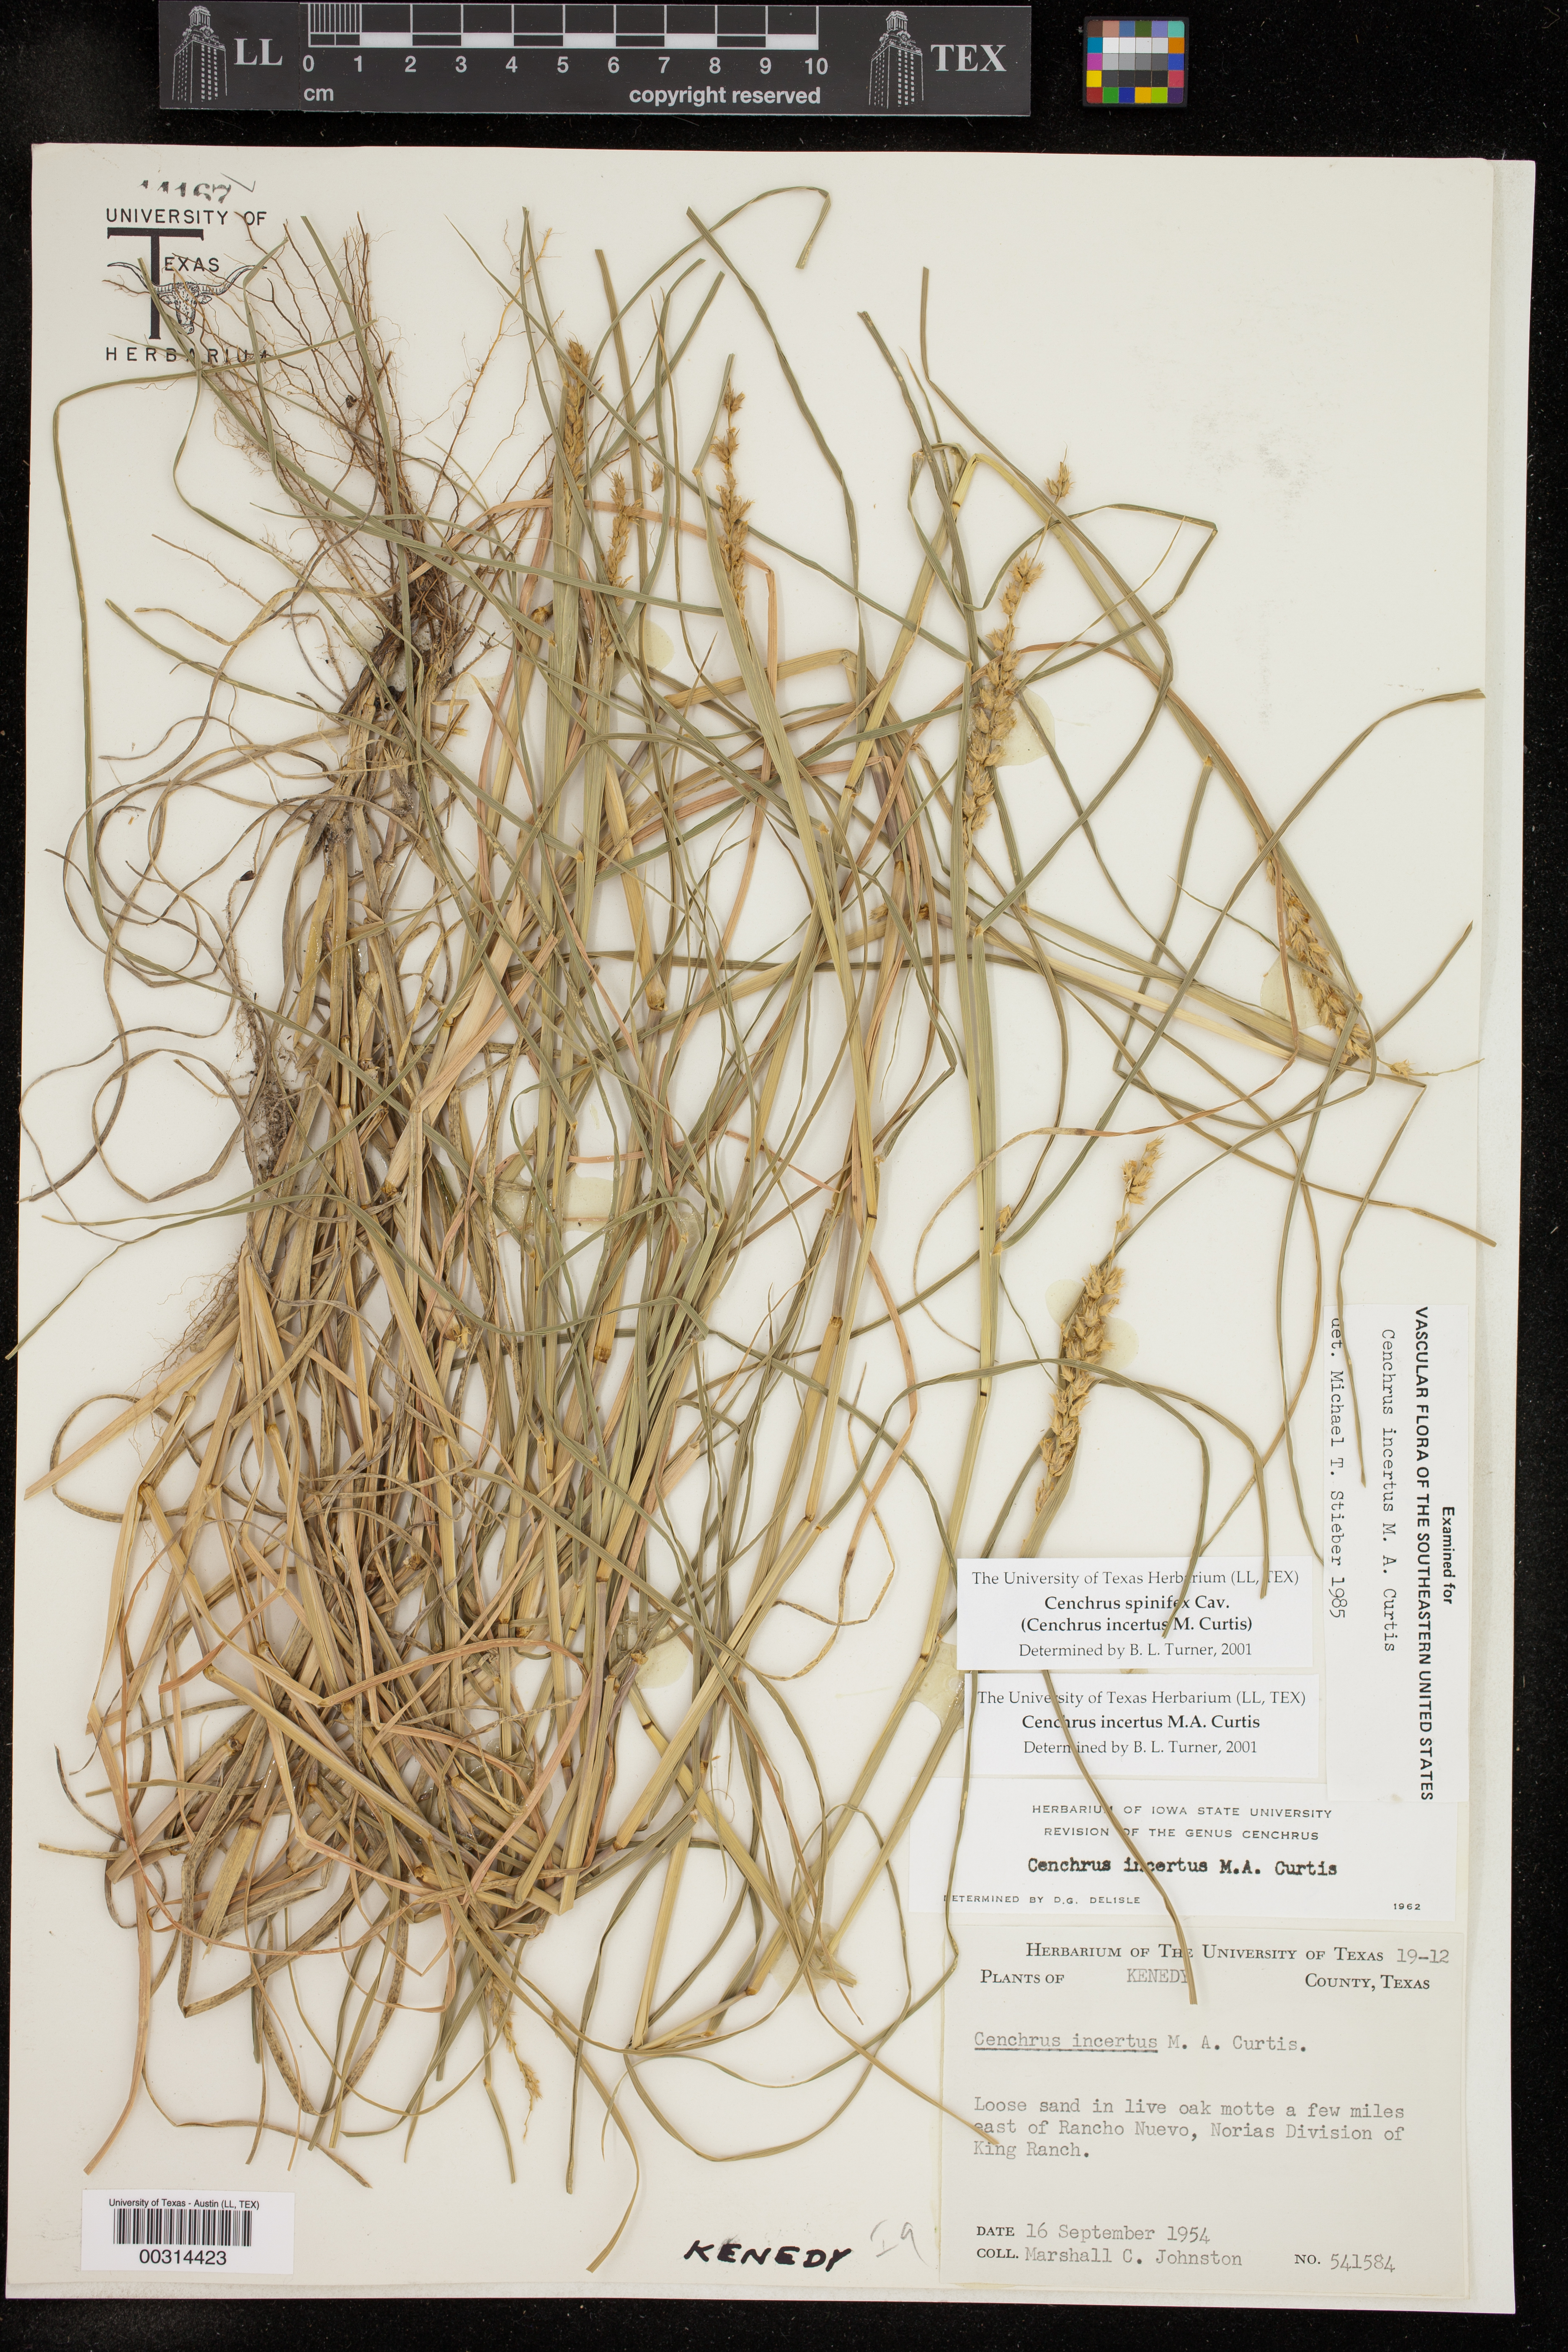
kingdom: Plantae
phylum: Tracheophyta
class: Liliopsida
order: Poales
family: Poaceae
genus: Cenchrus
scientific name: Cenchrus spinifex
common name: Coast sandbur
